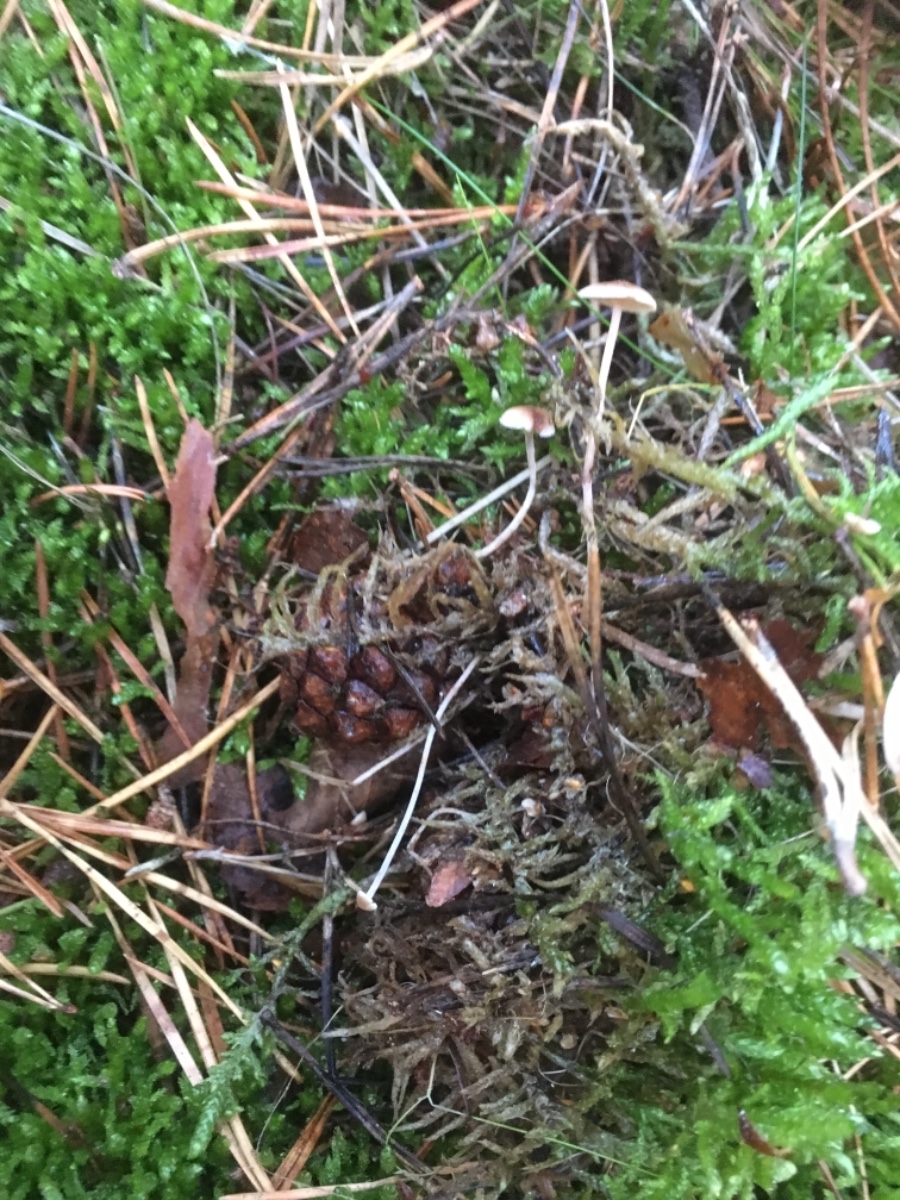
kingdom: Fungi
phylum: Basidiomycota
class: Agaricomycetes
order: Agaricales
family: Marasmiaceae
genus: Baeospora
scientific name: Baeospora myosura
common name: koglebruskhat
